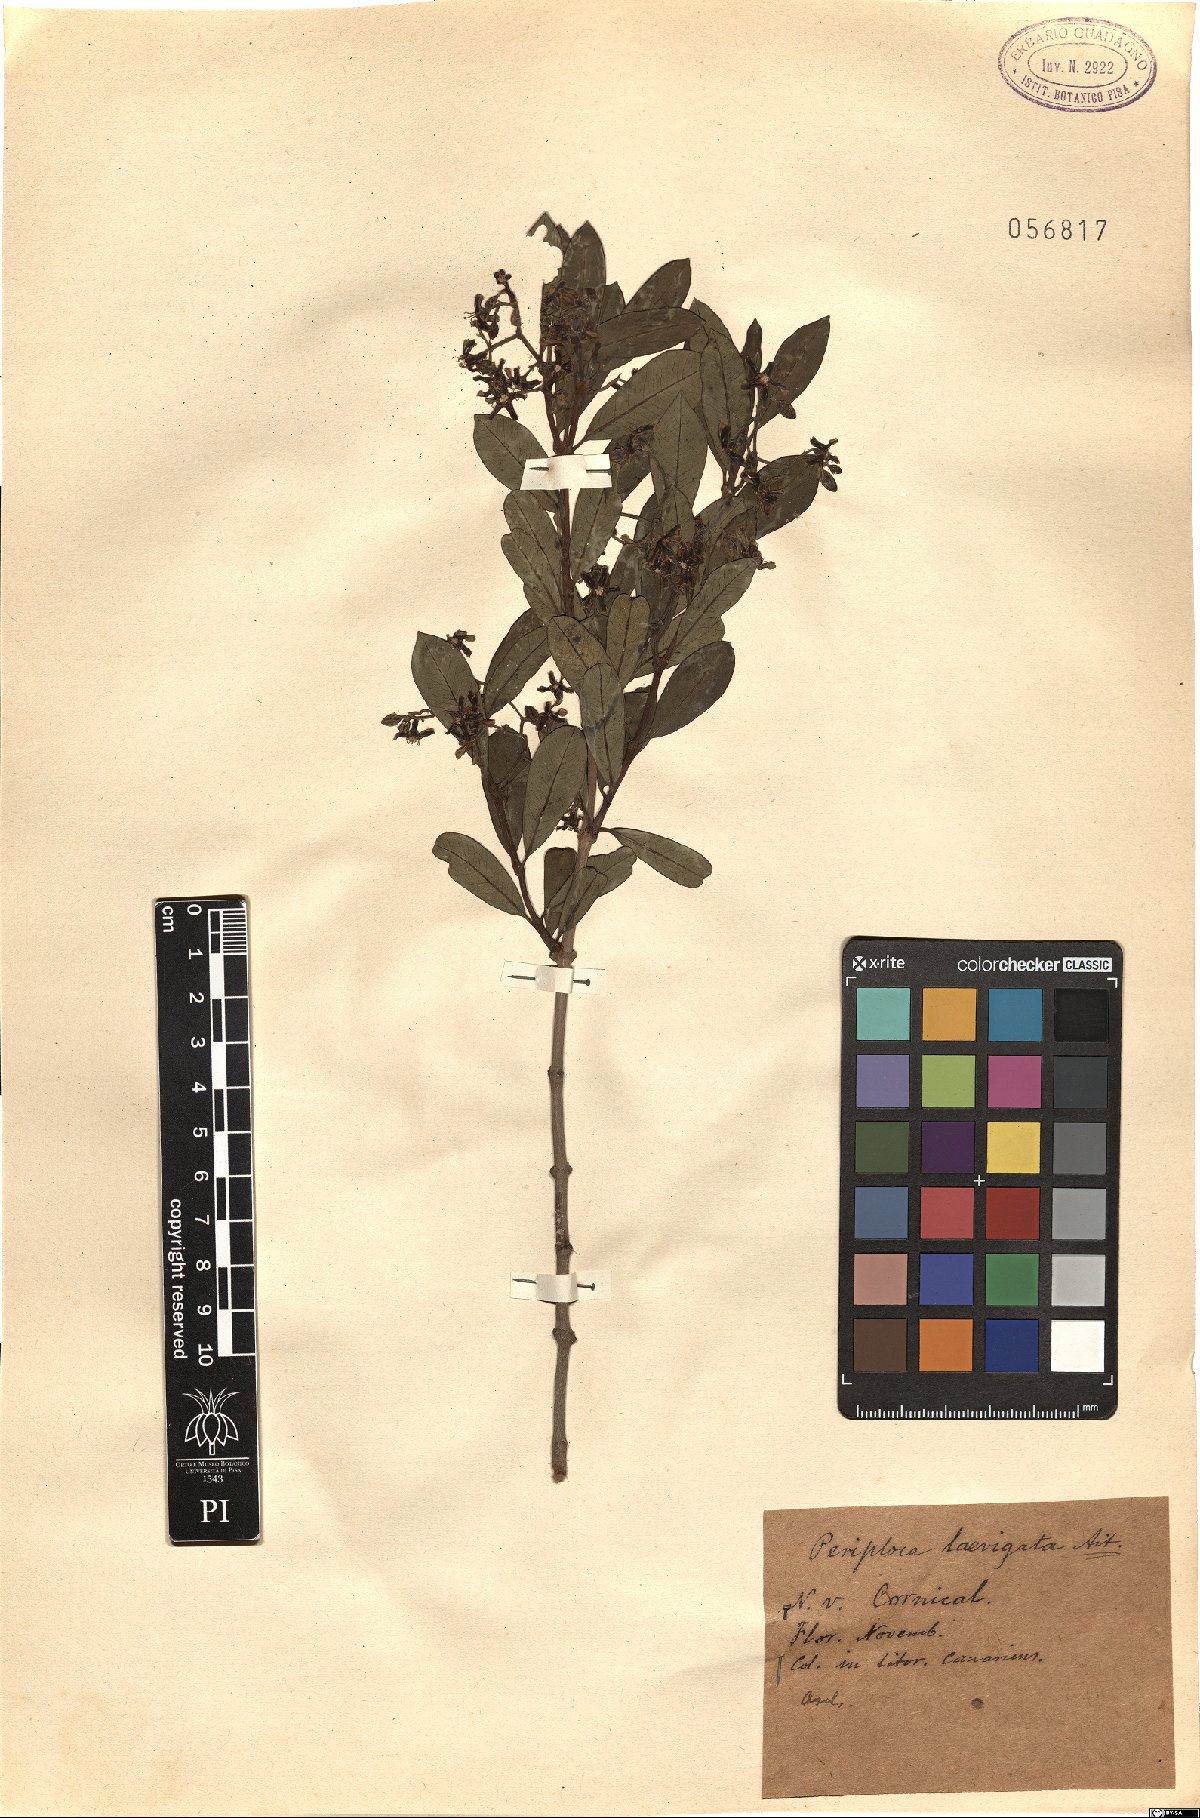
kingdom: Plantae
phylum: Tracheophyta
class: Magnoliopsida
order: Gentianales
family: Apocynaceae
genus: Periploca
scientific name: Periploca laevigata
